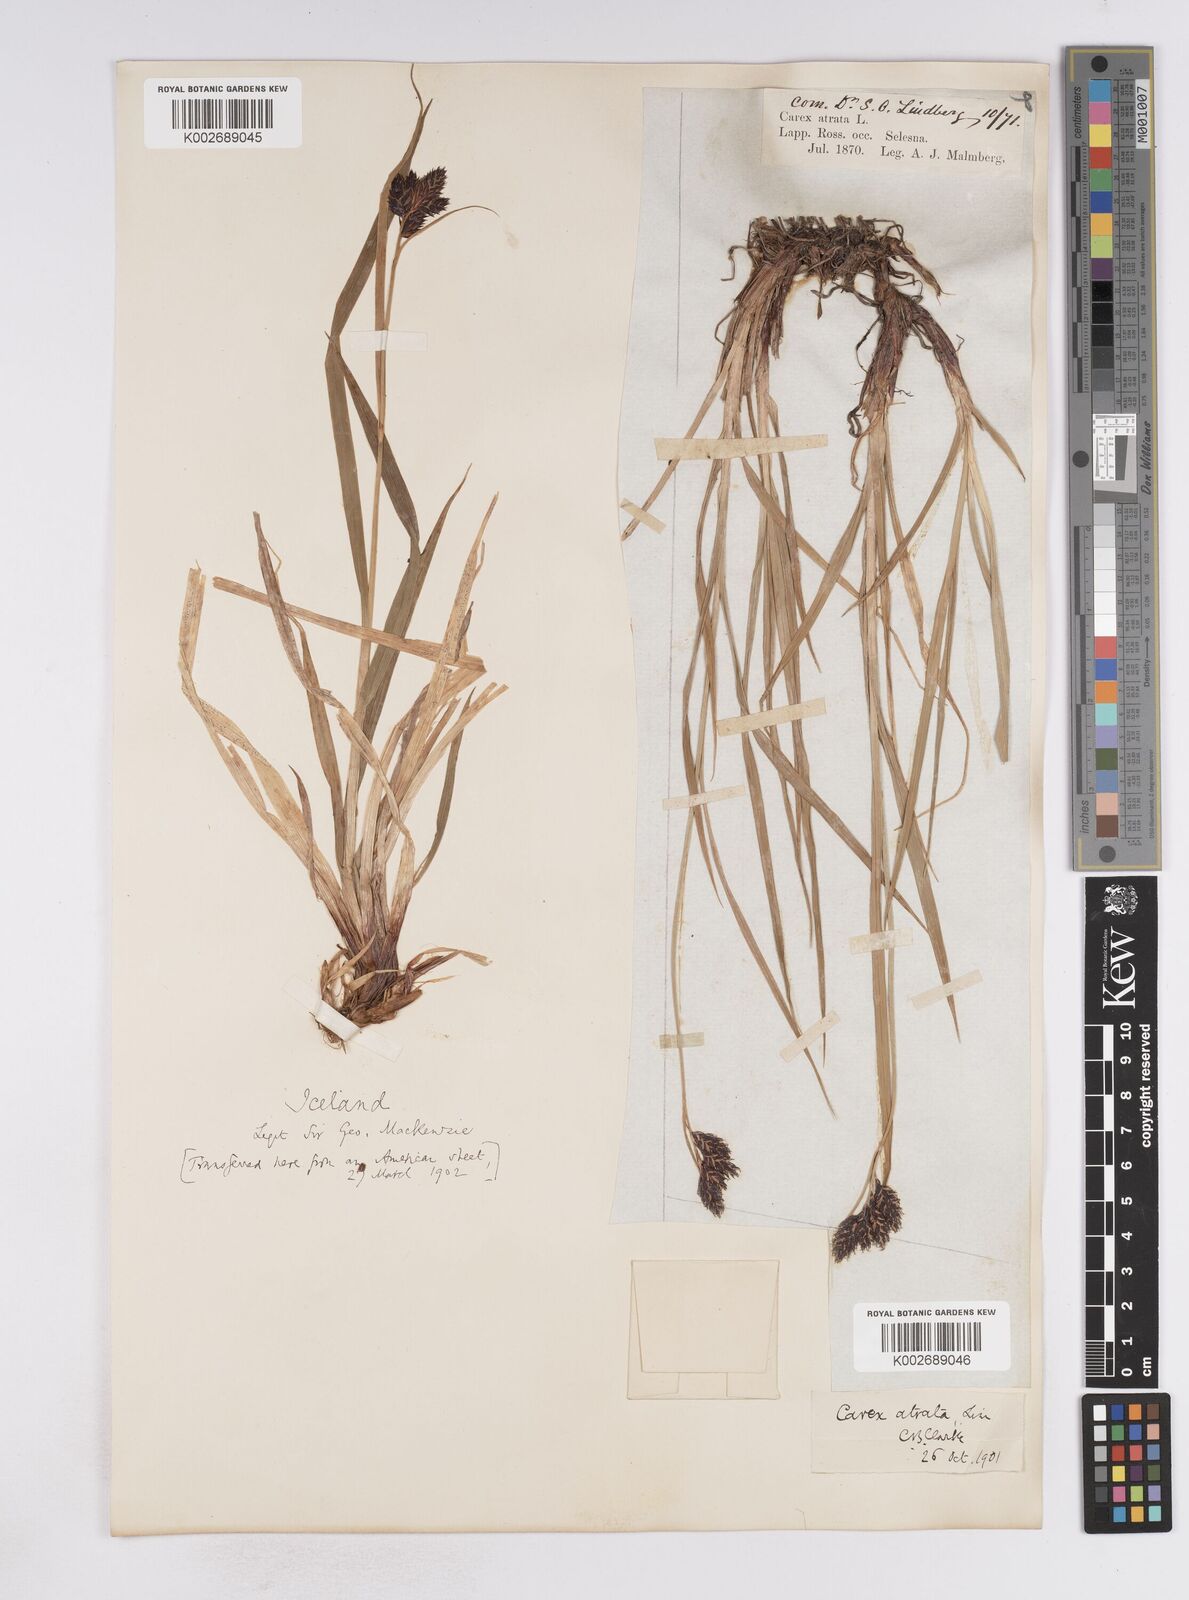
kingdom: Plantae
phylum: Tracheophyta
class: Liliopsida
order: Poales
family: Cyperaceae
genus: Carex
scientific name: Carex atrata
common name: Black alpine sedge
